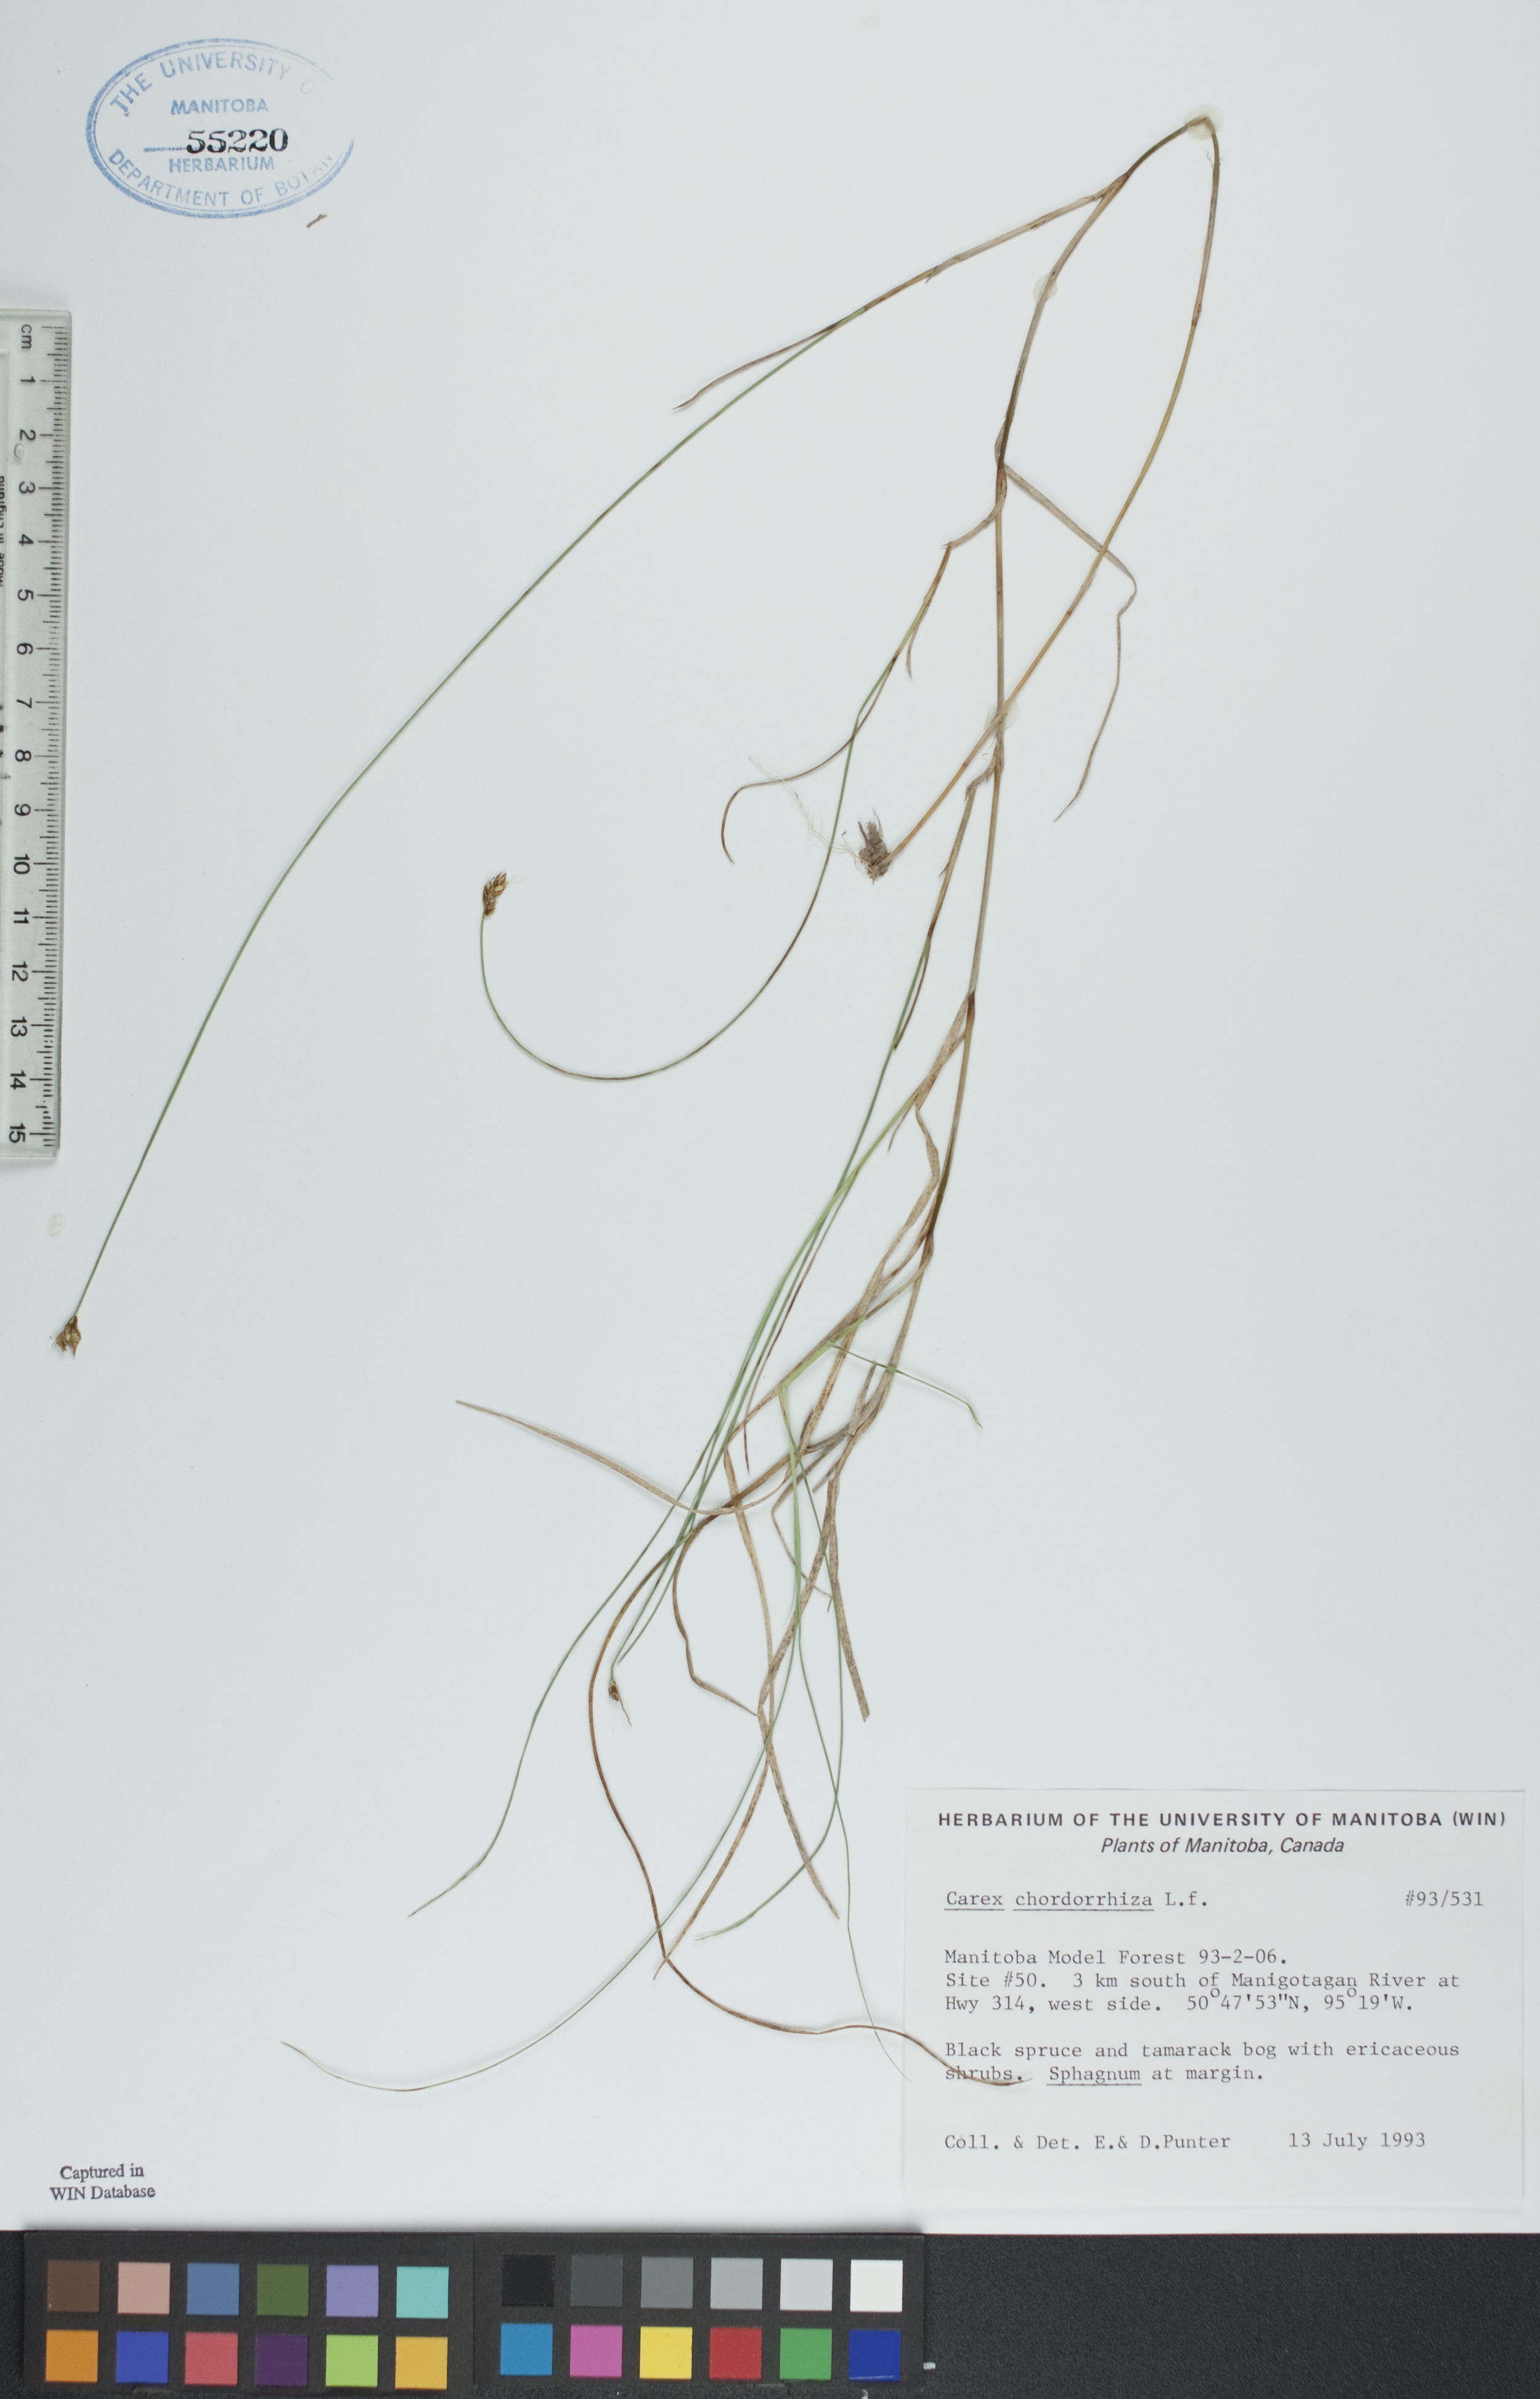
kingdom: Plantae
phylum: Tracheophyta
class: Liliopsida
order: Poales
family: Cyperaceae
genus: Carex
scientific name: Carex chordorrhiza
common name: String sedge
